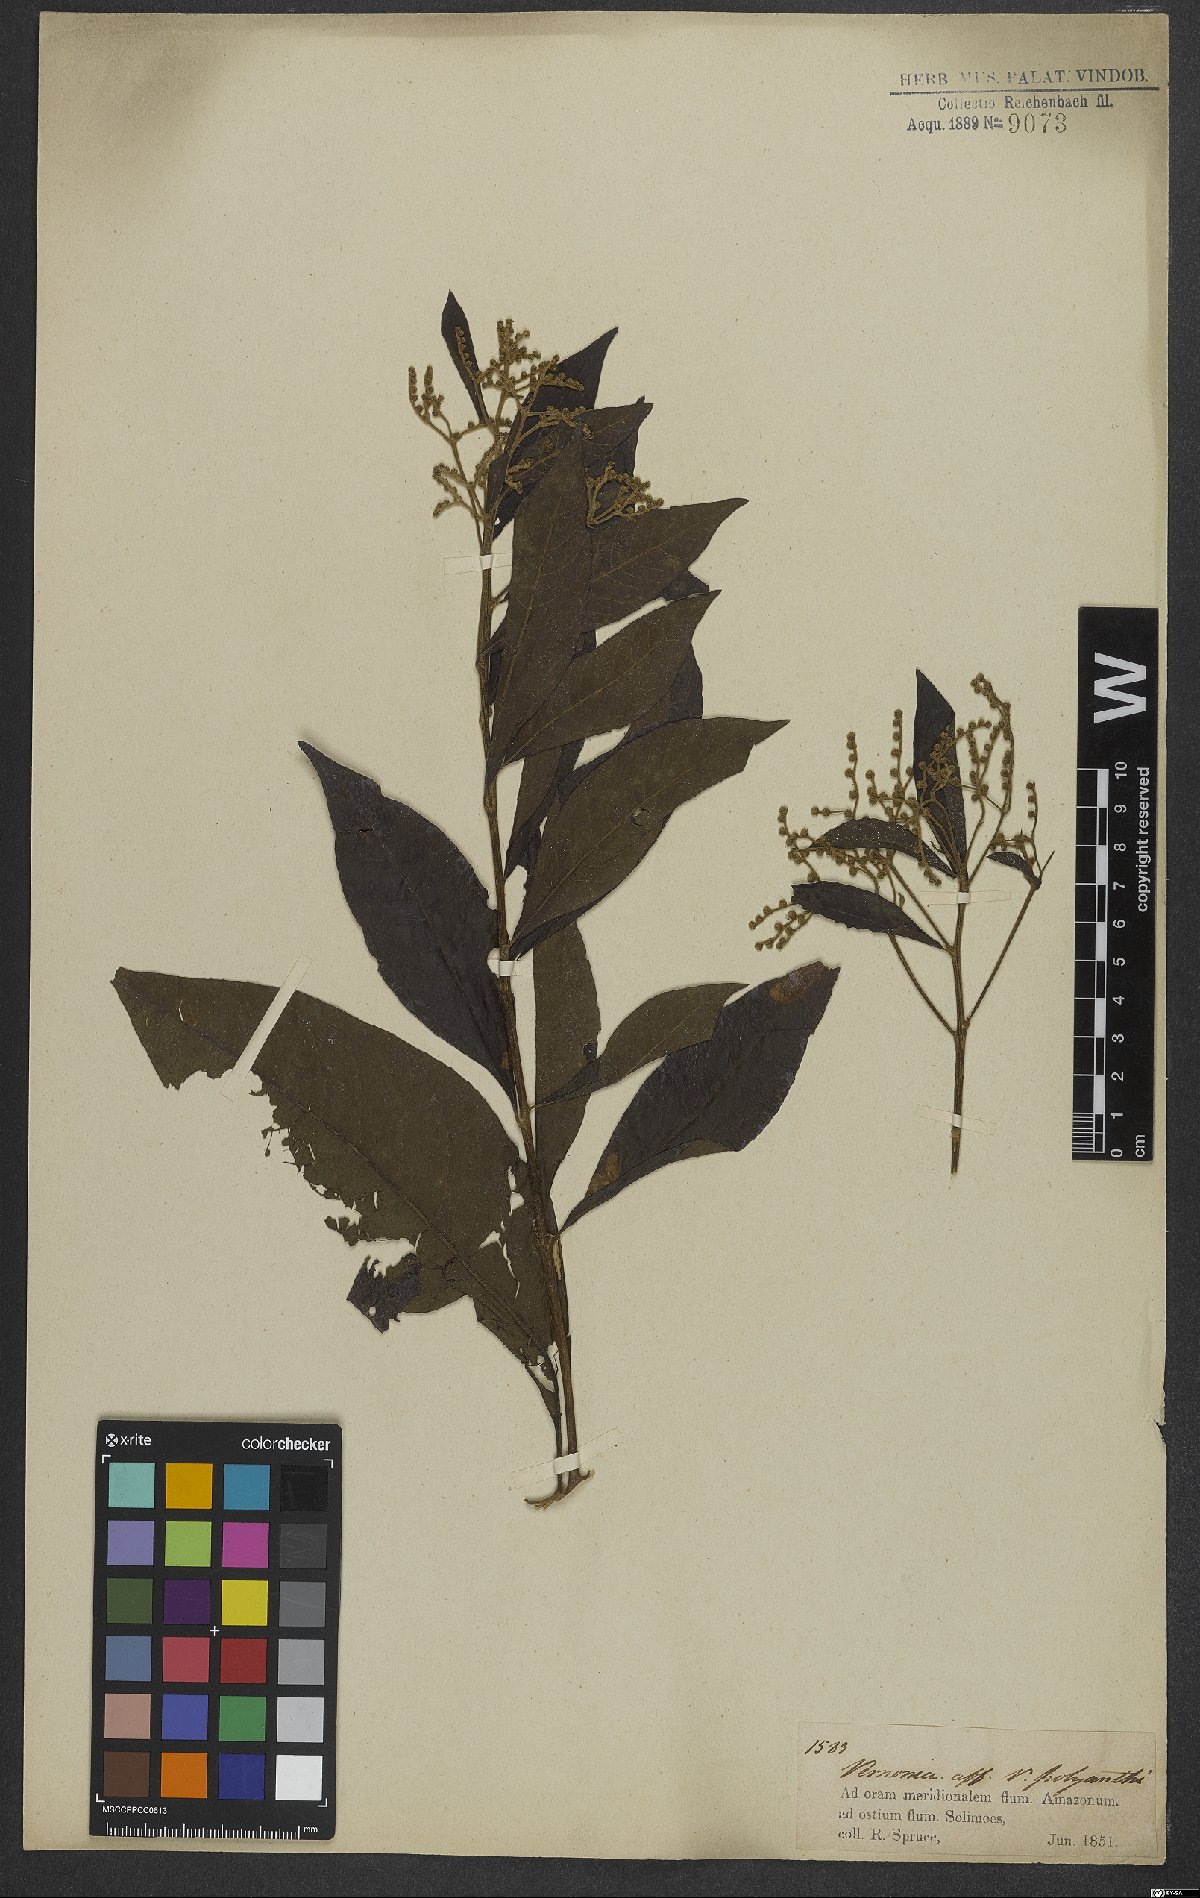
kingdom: Plantae
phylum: Tracheophyta
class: Magnoliopsida
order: Asterales
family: Asteraceae
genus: Vernonanthura
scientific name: Vernonanthura polyanthes
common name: Tree aster
